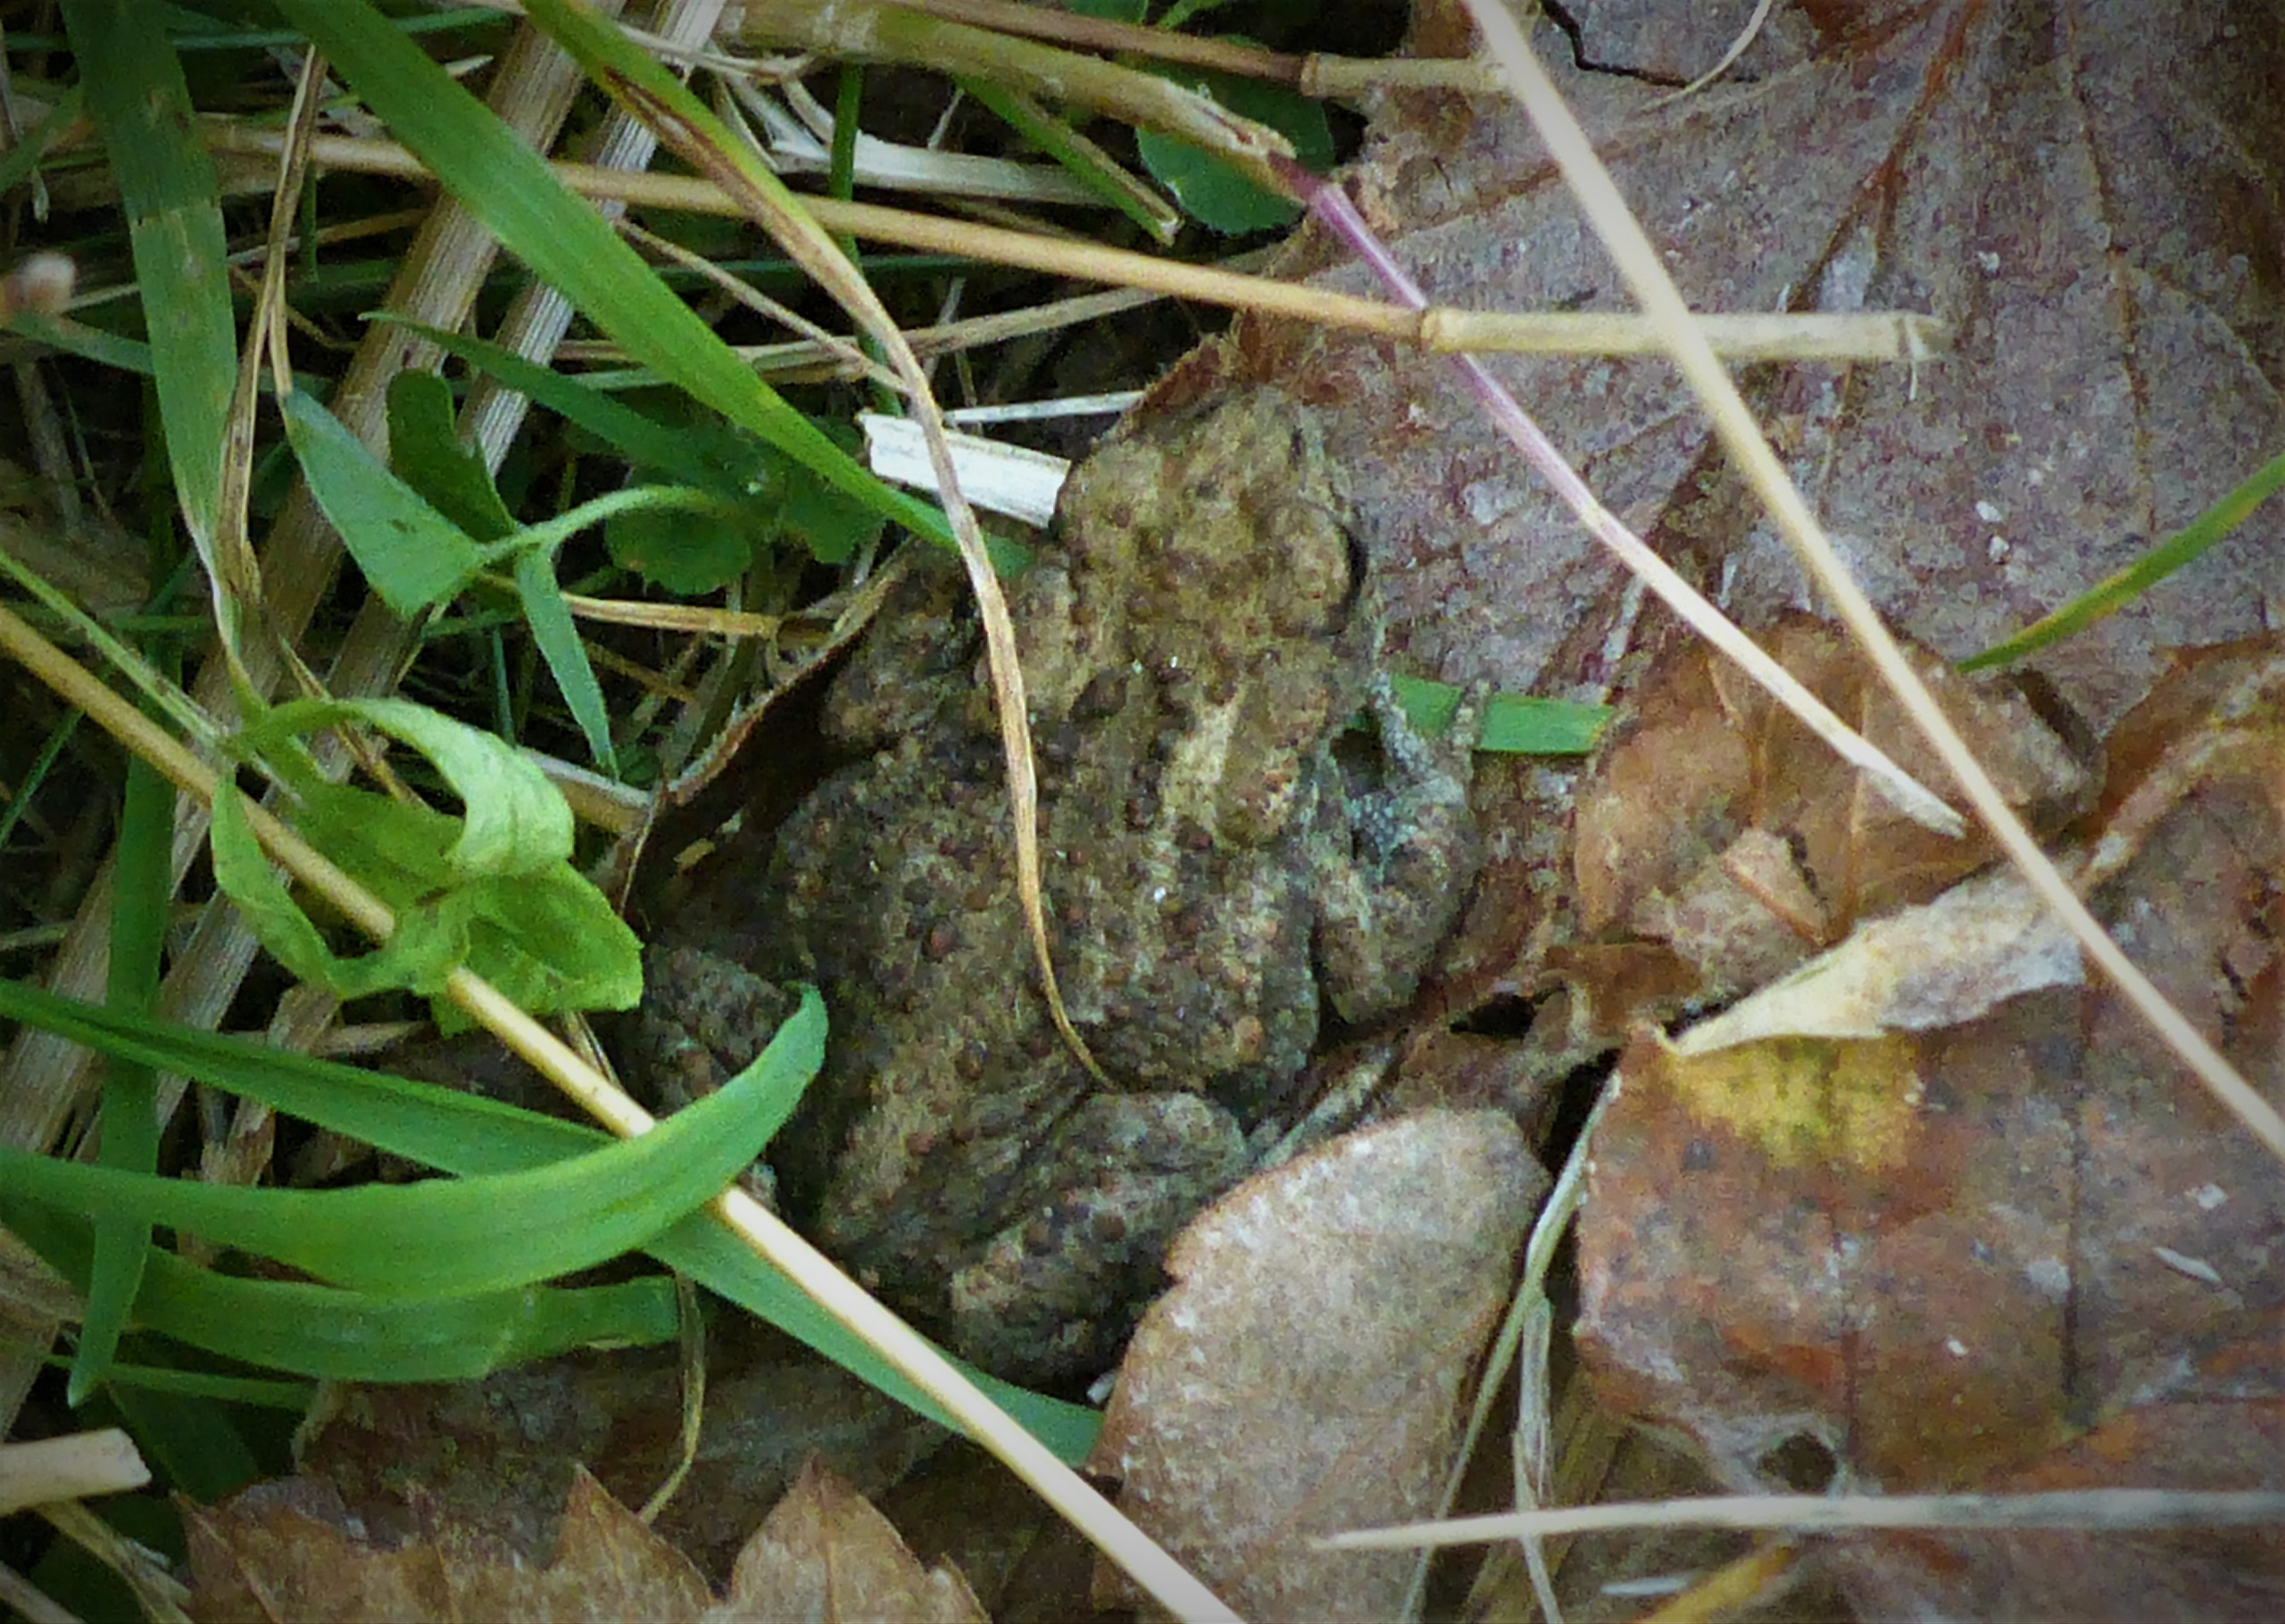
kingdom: Animalia
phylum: Chordata
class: Amphibia
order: Anura
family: Bufonidae
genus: Bufo
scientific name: Bufo bufo
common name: Skrubtudse
